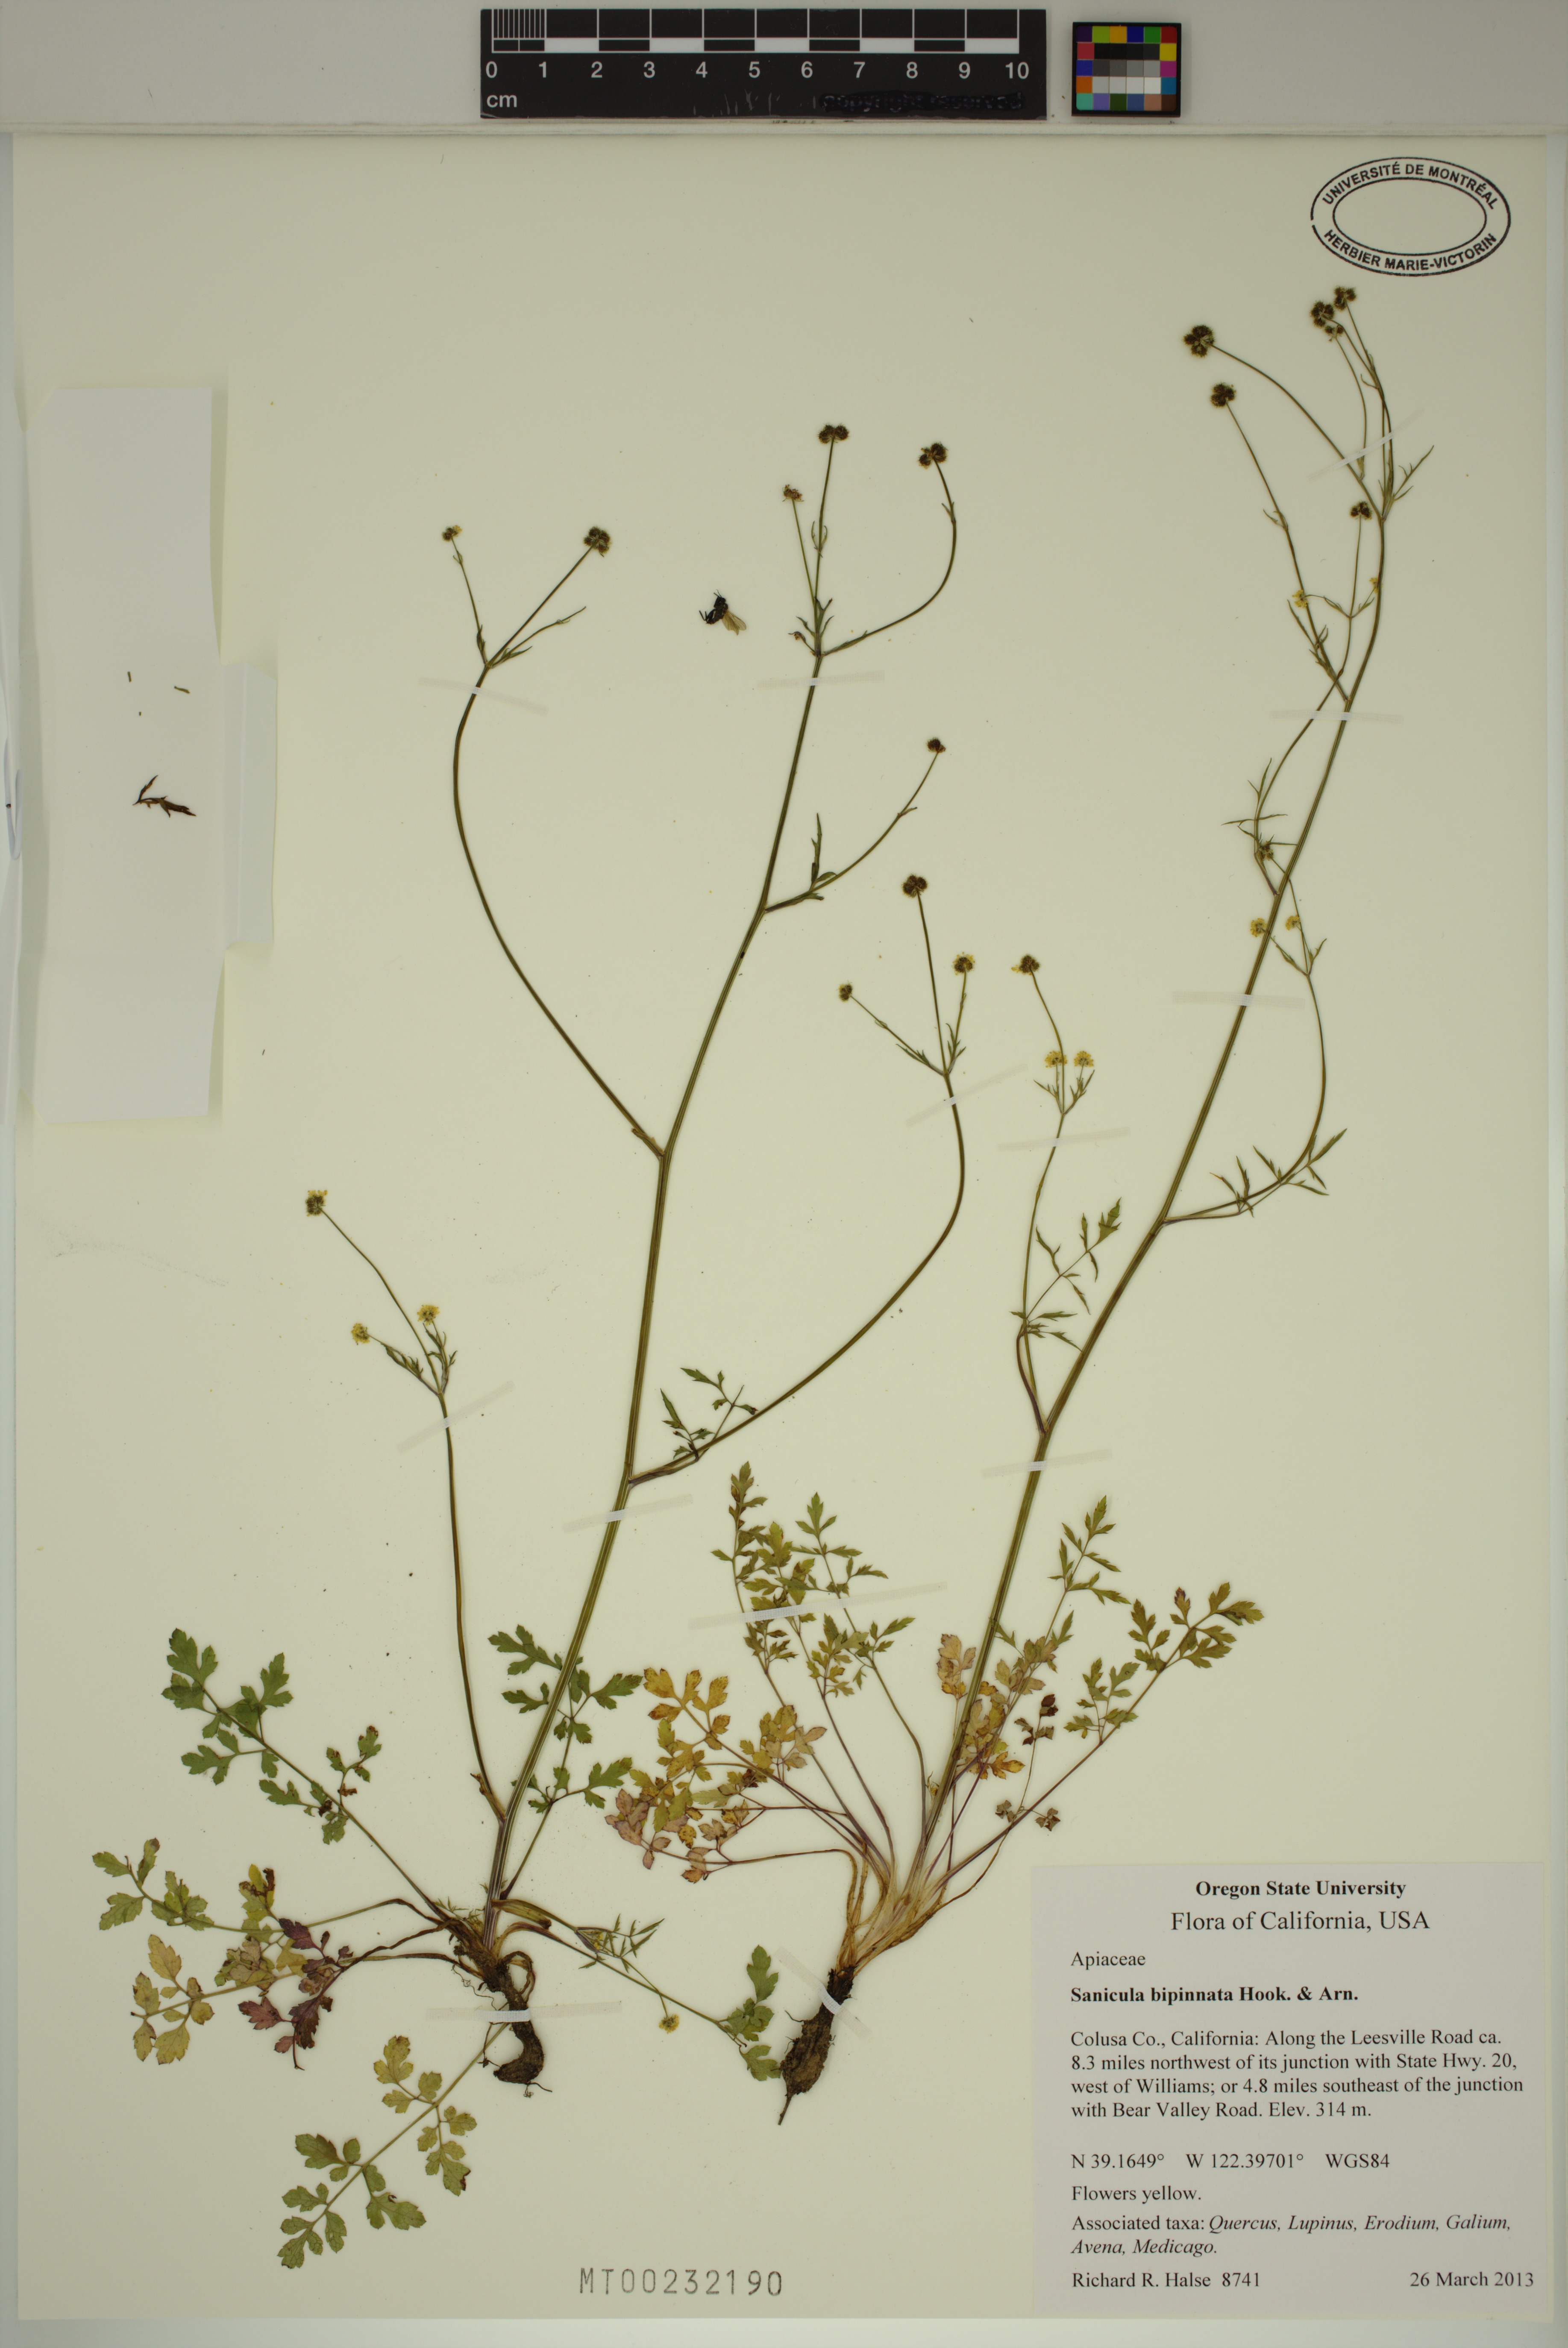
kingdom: Plantae
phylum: Tracheophyta
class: Magnoliopsida
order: Apiales
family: Apiaceae
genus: Sanicula
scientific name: Sanicula bipinnata
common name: Poison sanicle
